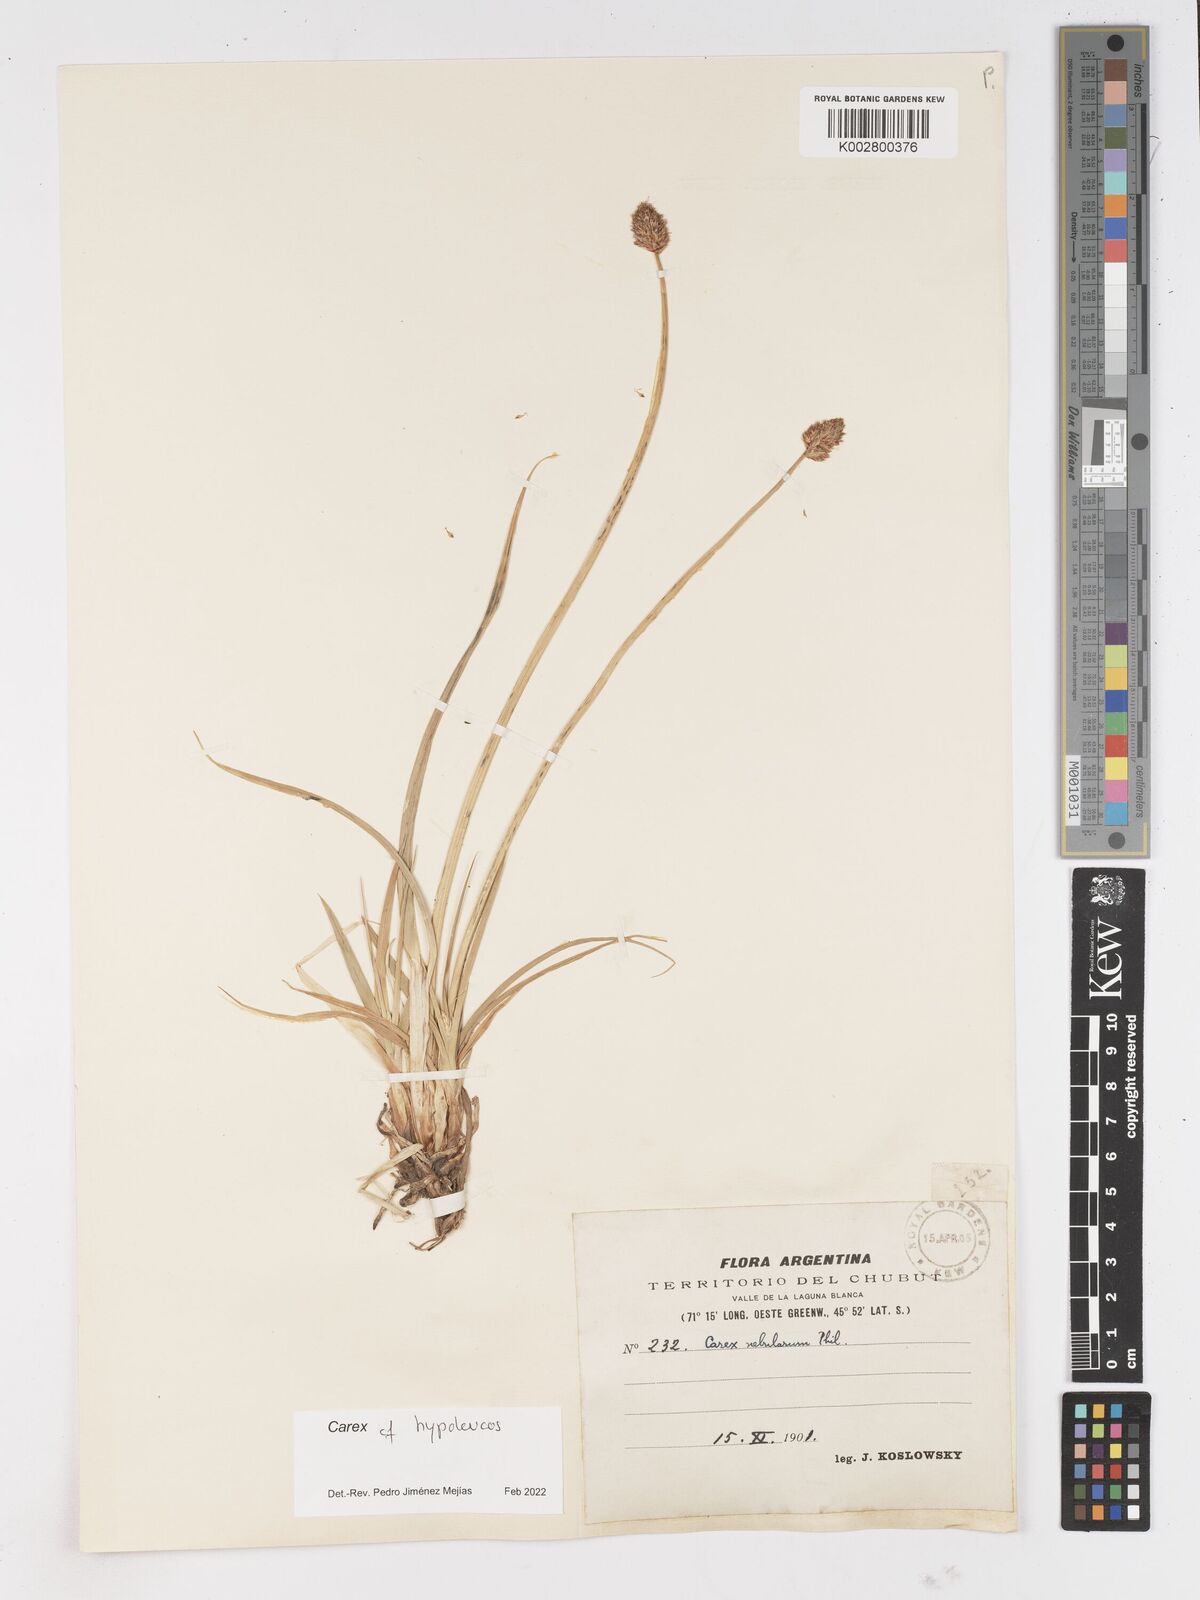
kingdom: Plantae
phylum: Tracheophyta
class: Liliopsida
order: Poales
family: Cyperaceae
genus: Carex
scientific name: Carex macrorrhiza
